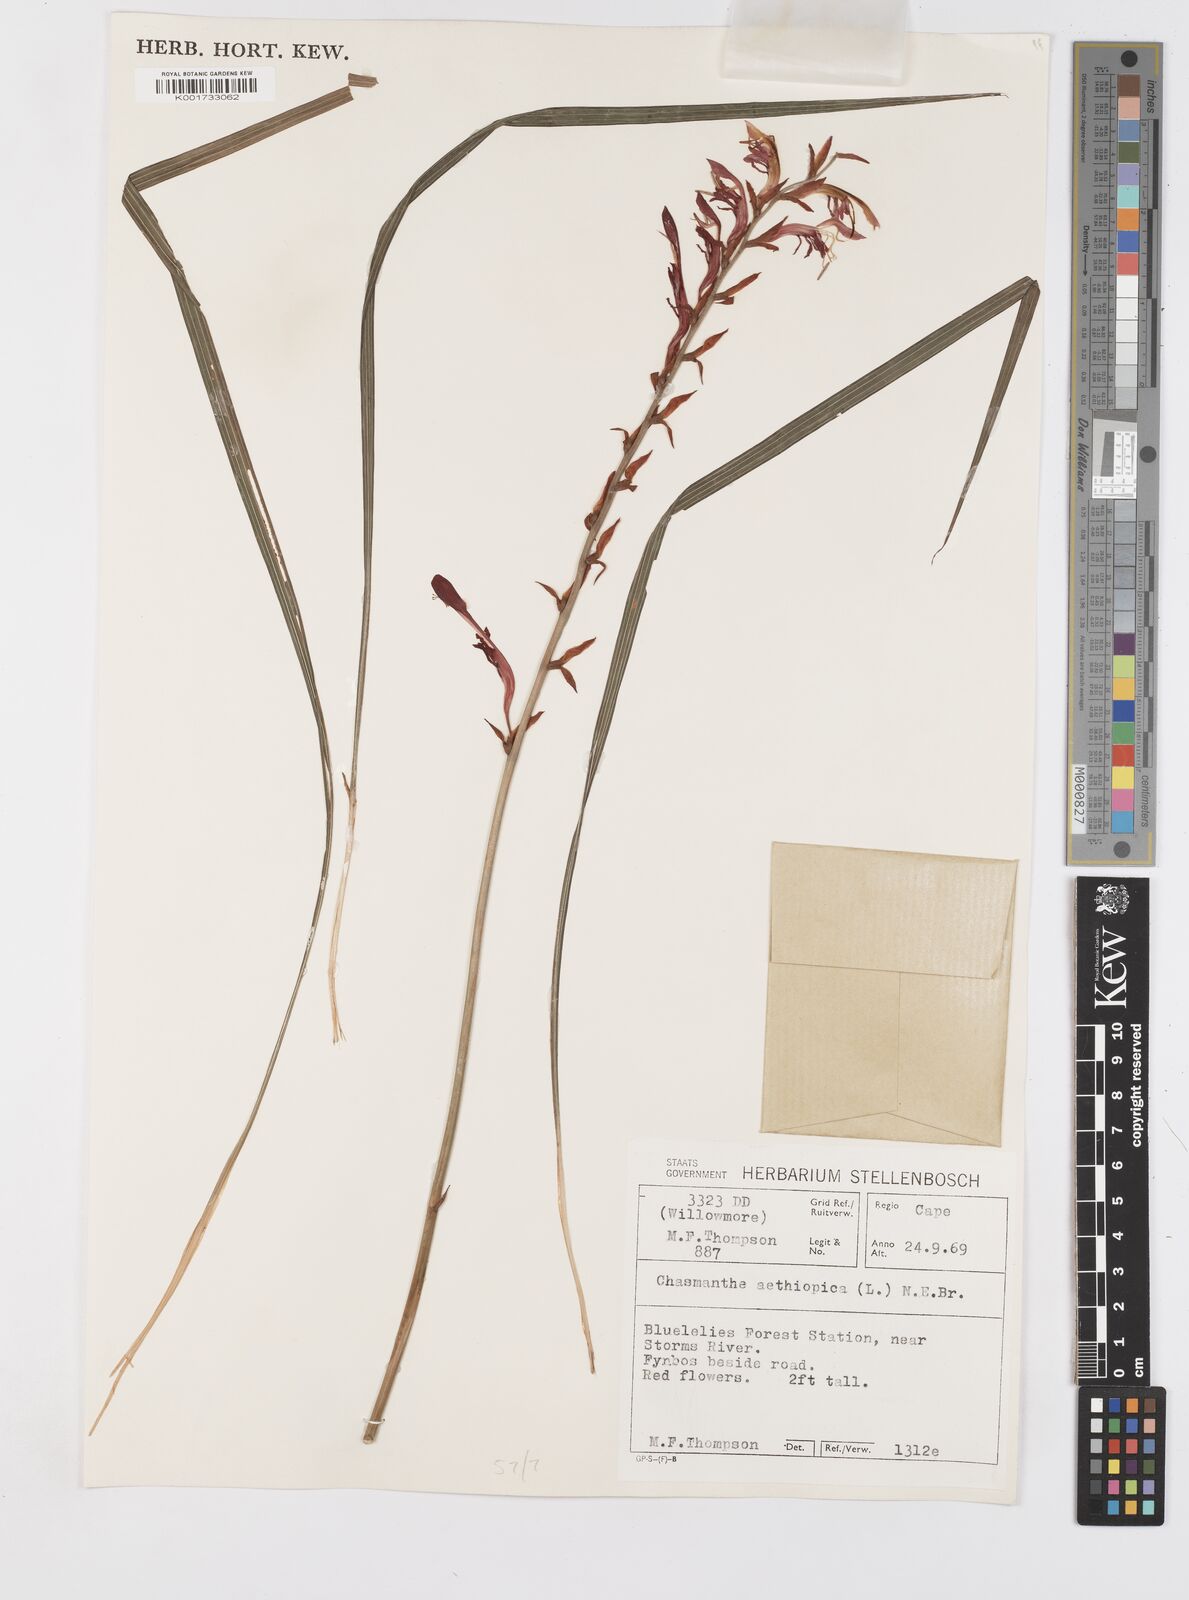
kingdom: Plantae
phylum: Tracheophyta
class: Liliopsida
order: Asparagales
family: Iridaceae
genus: Tritoniopsis
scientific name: Tritoniopsis caffra
